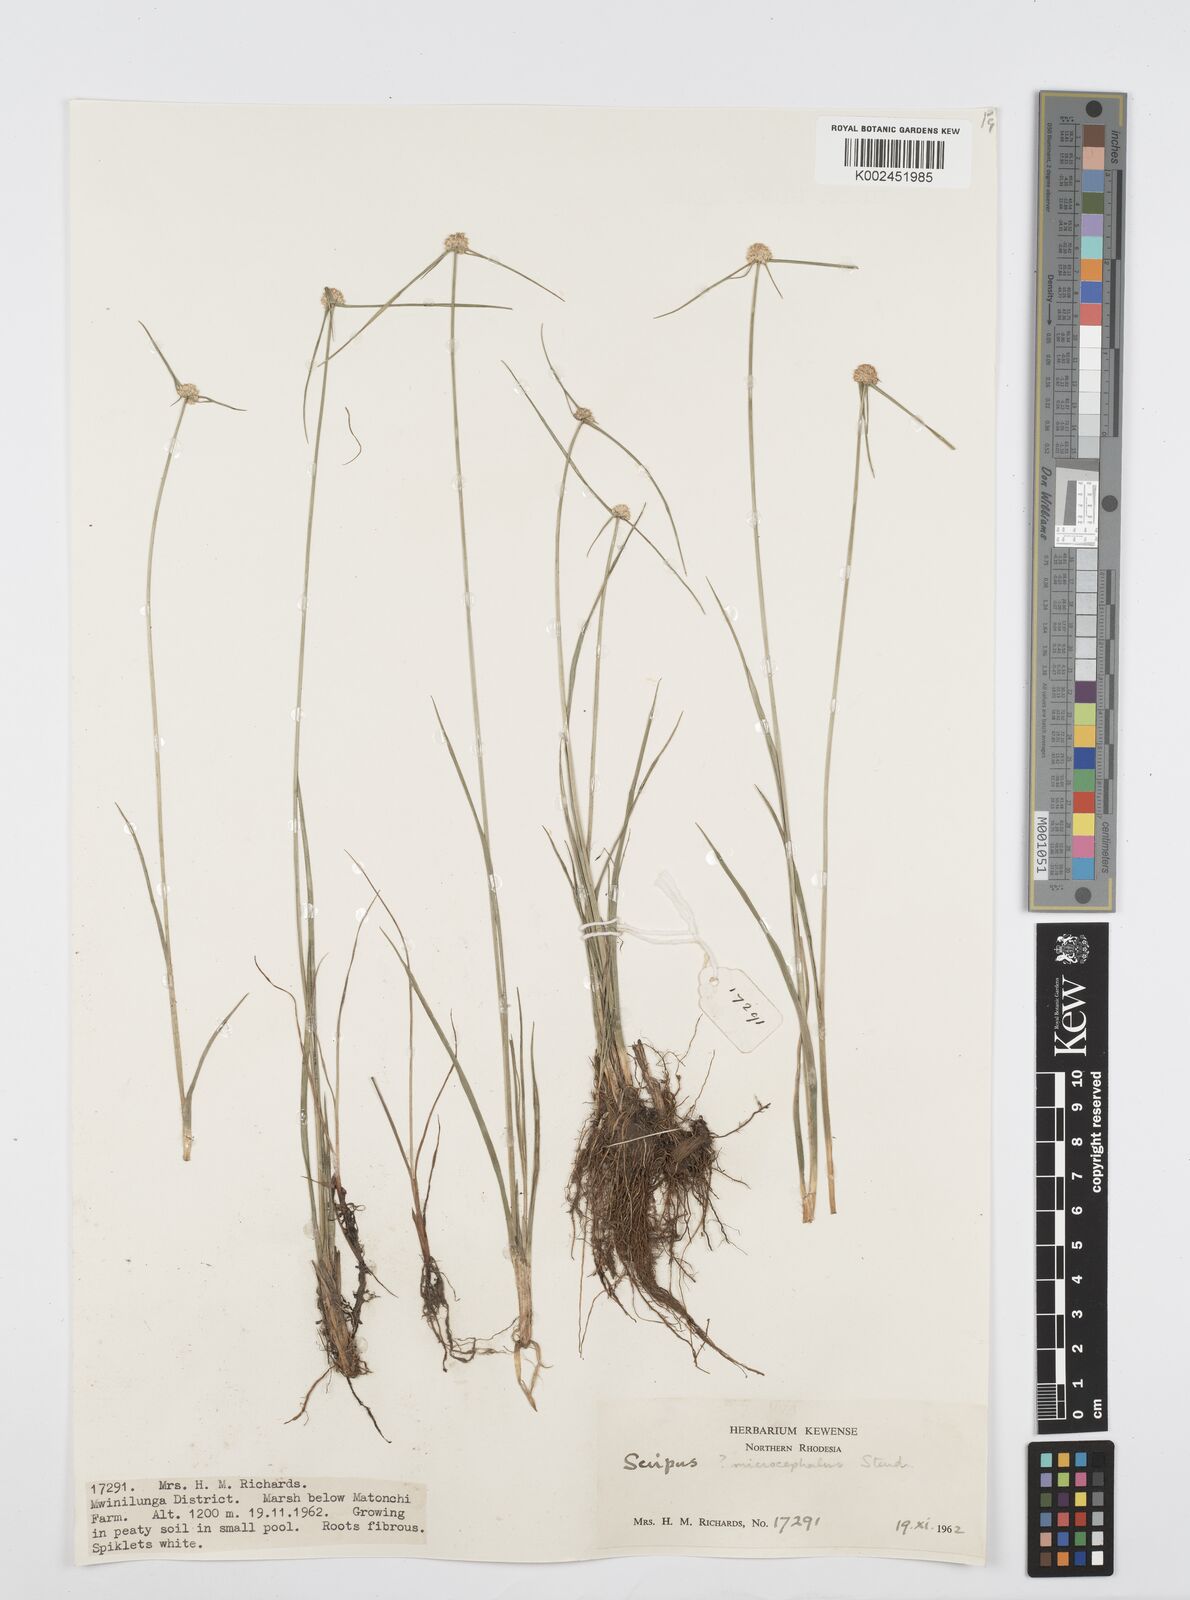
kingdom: Plantae
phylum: Tracheophyta
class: Liliopsida
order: Poales
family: Cyperaceae
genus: Cyperus
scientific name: Cyperus microcephalus
